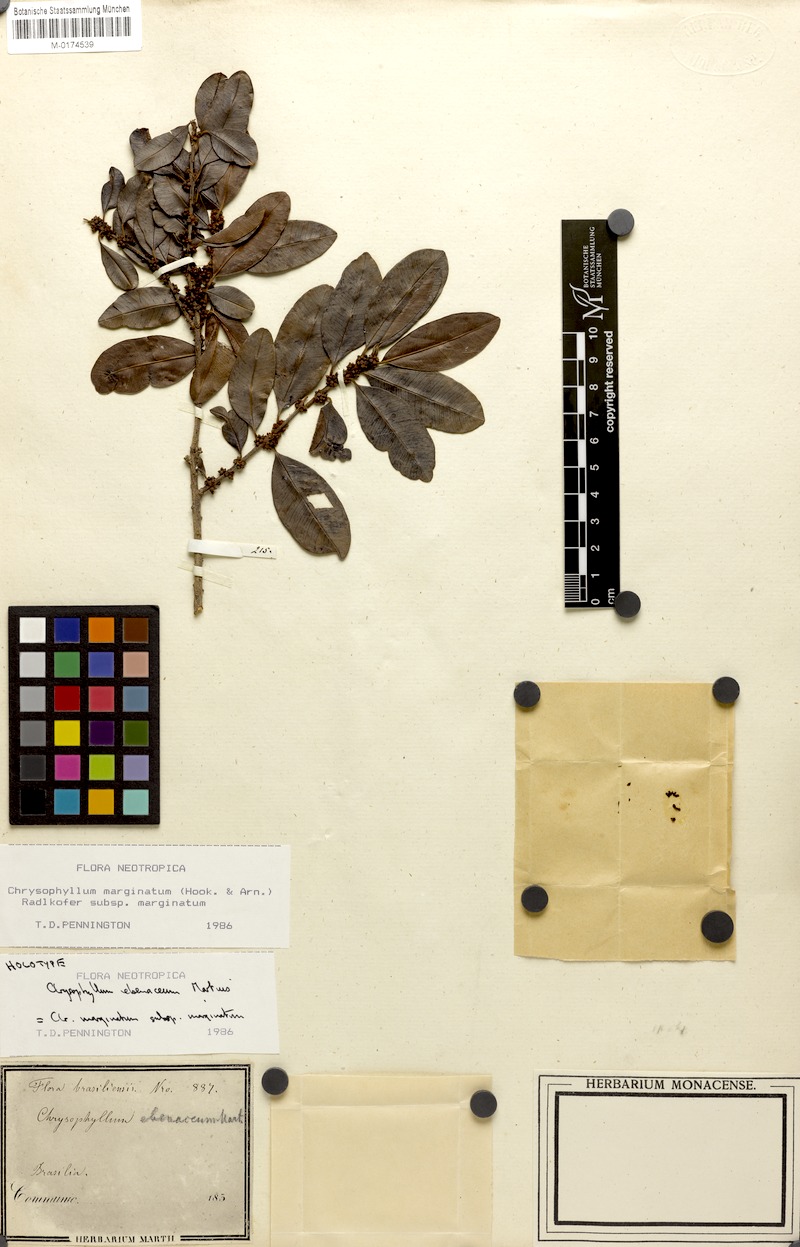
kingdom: Plantae
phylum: Tracheophyta
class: Magnoliopsida
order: Ericales
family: Sapotaceae
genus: Chrysophyllum
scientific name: Chrysophyllum marginatum
